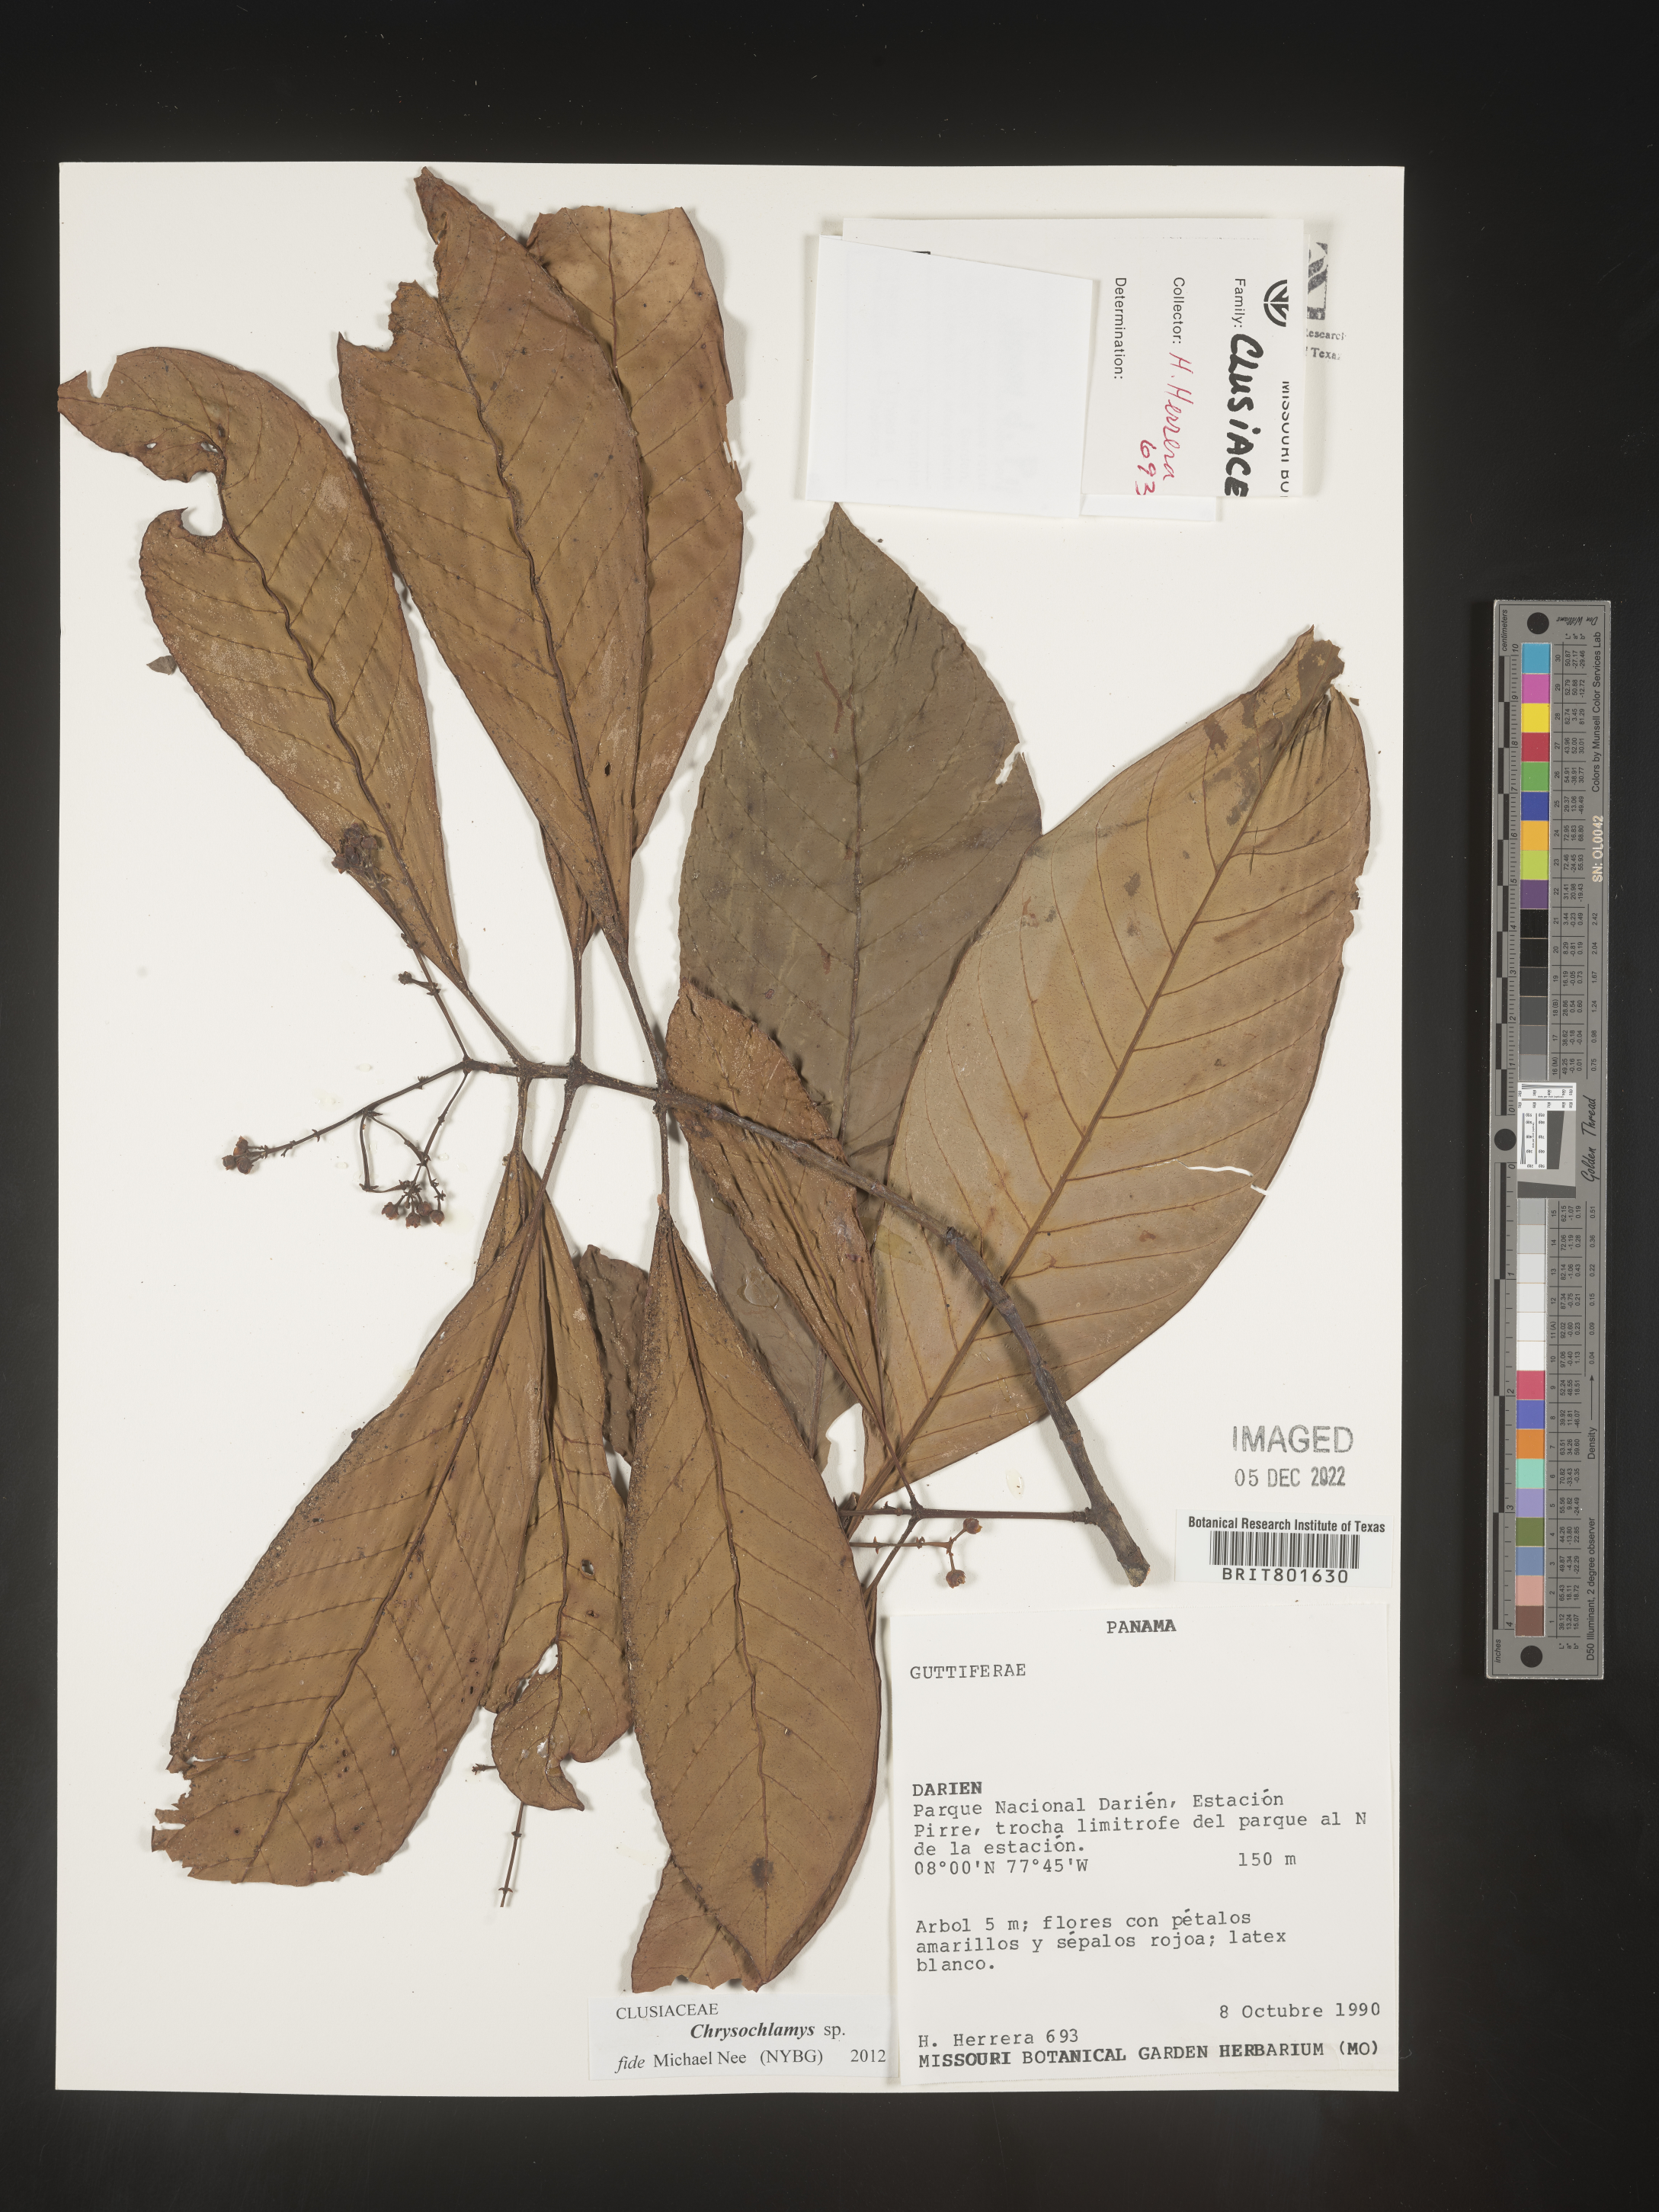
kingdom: Plantae
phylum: Tracheophyta
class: Magnoliopsida
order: Malpighiales
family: Clusiaceae
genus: Chrysochlamys
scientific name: Chrysochlamys
